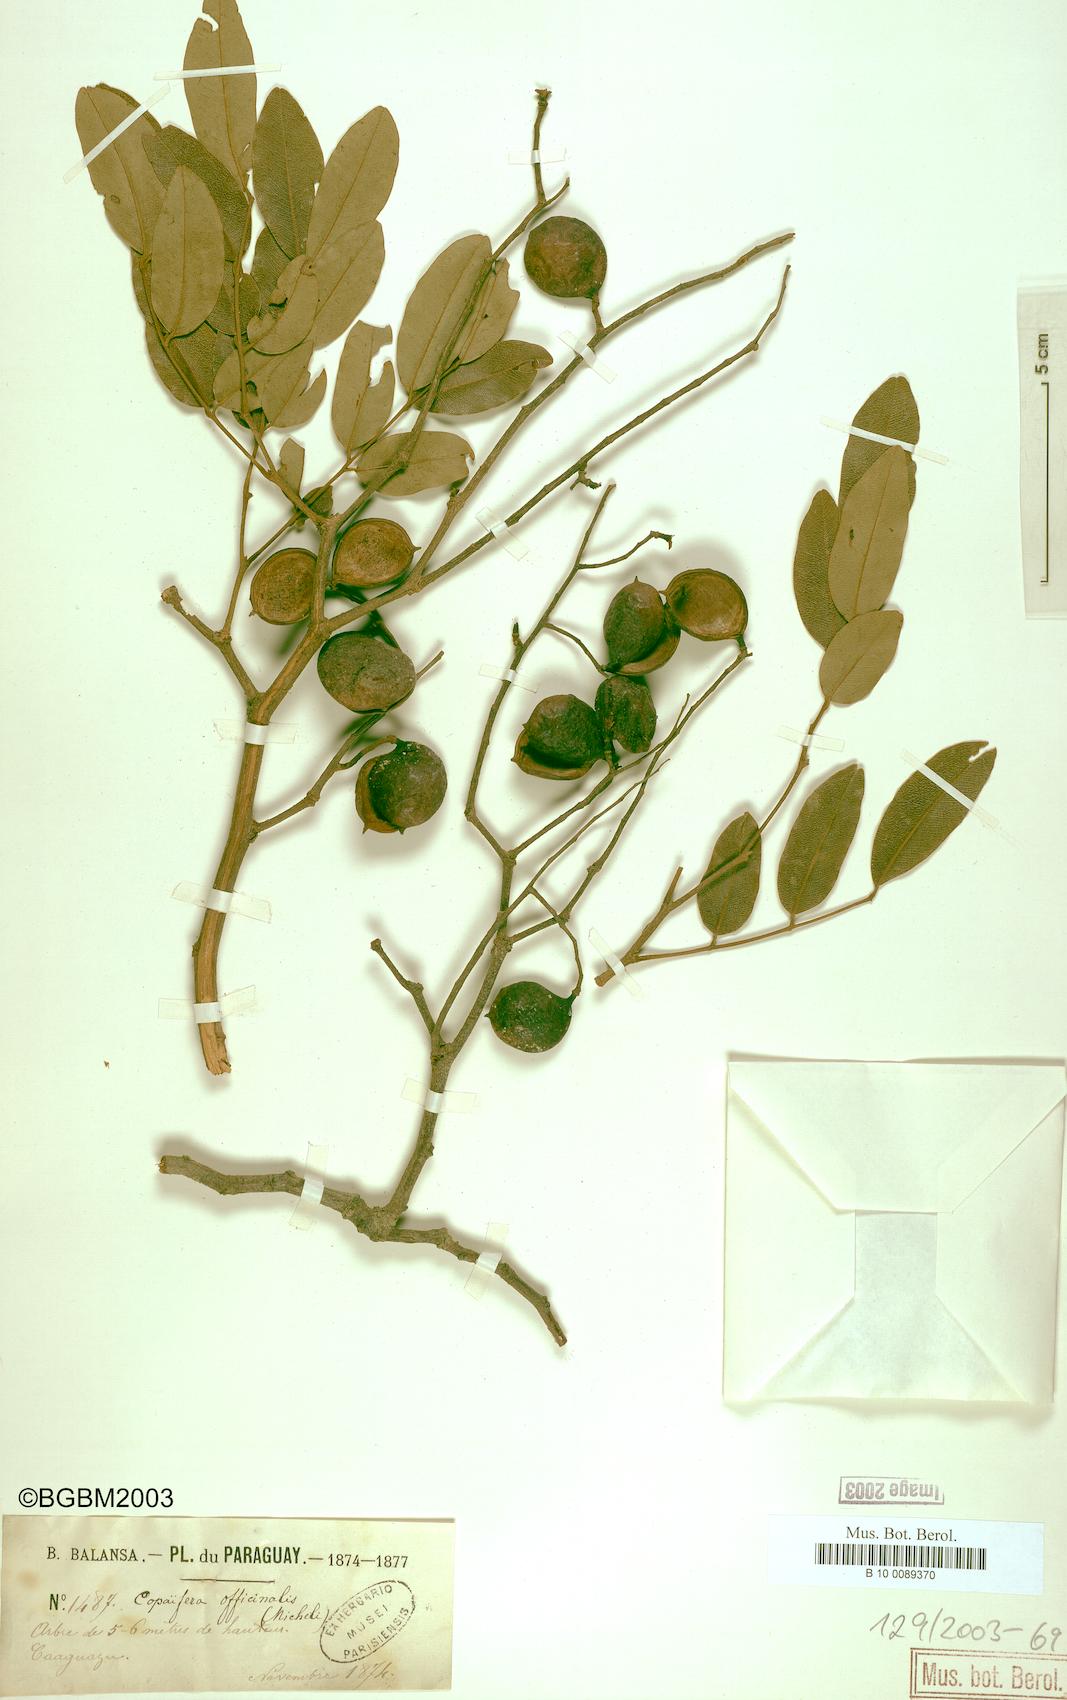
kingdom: Plantae
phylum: Tracheophyta
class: Magnoliopsida
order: Fabales
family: Fabaceae
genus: Copaifera
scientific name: Copaifera officinalis
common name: Copaiba
